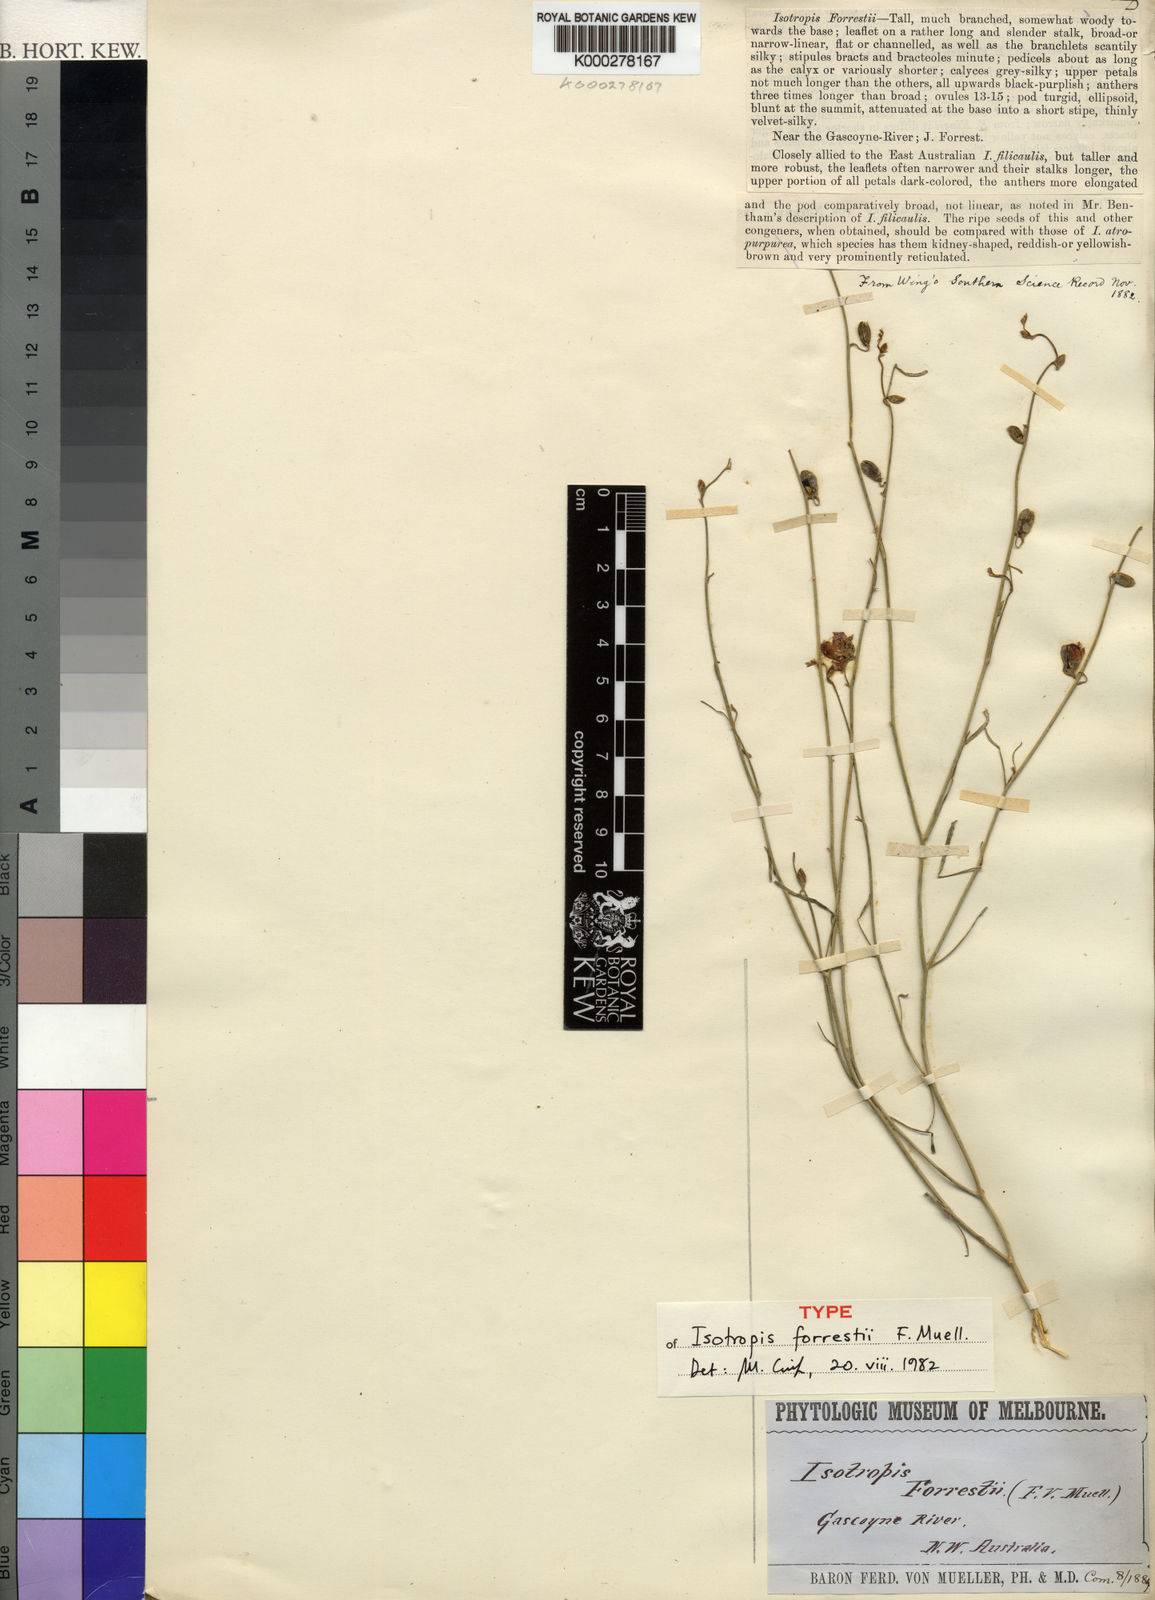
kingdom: Plantae
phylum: Tracheophyta
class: Magnoliopsida
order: Fabales
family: Fabaceae
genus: Isotropis
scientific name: Isotropis forrestii
